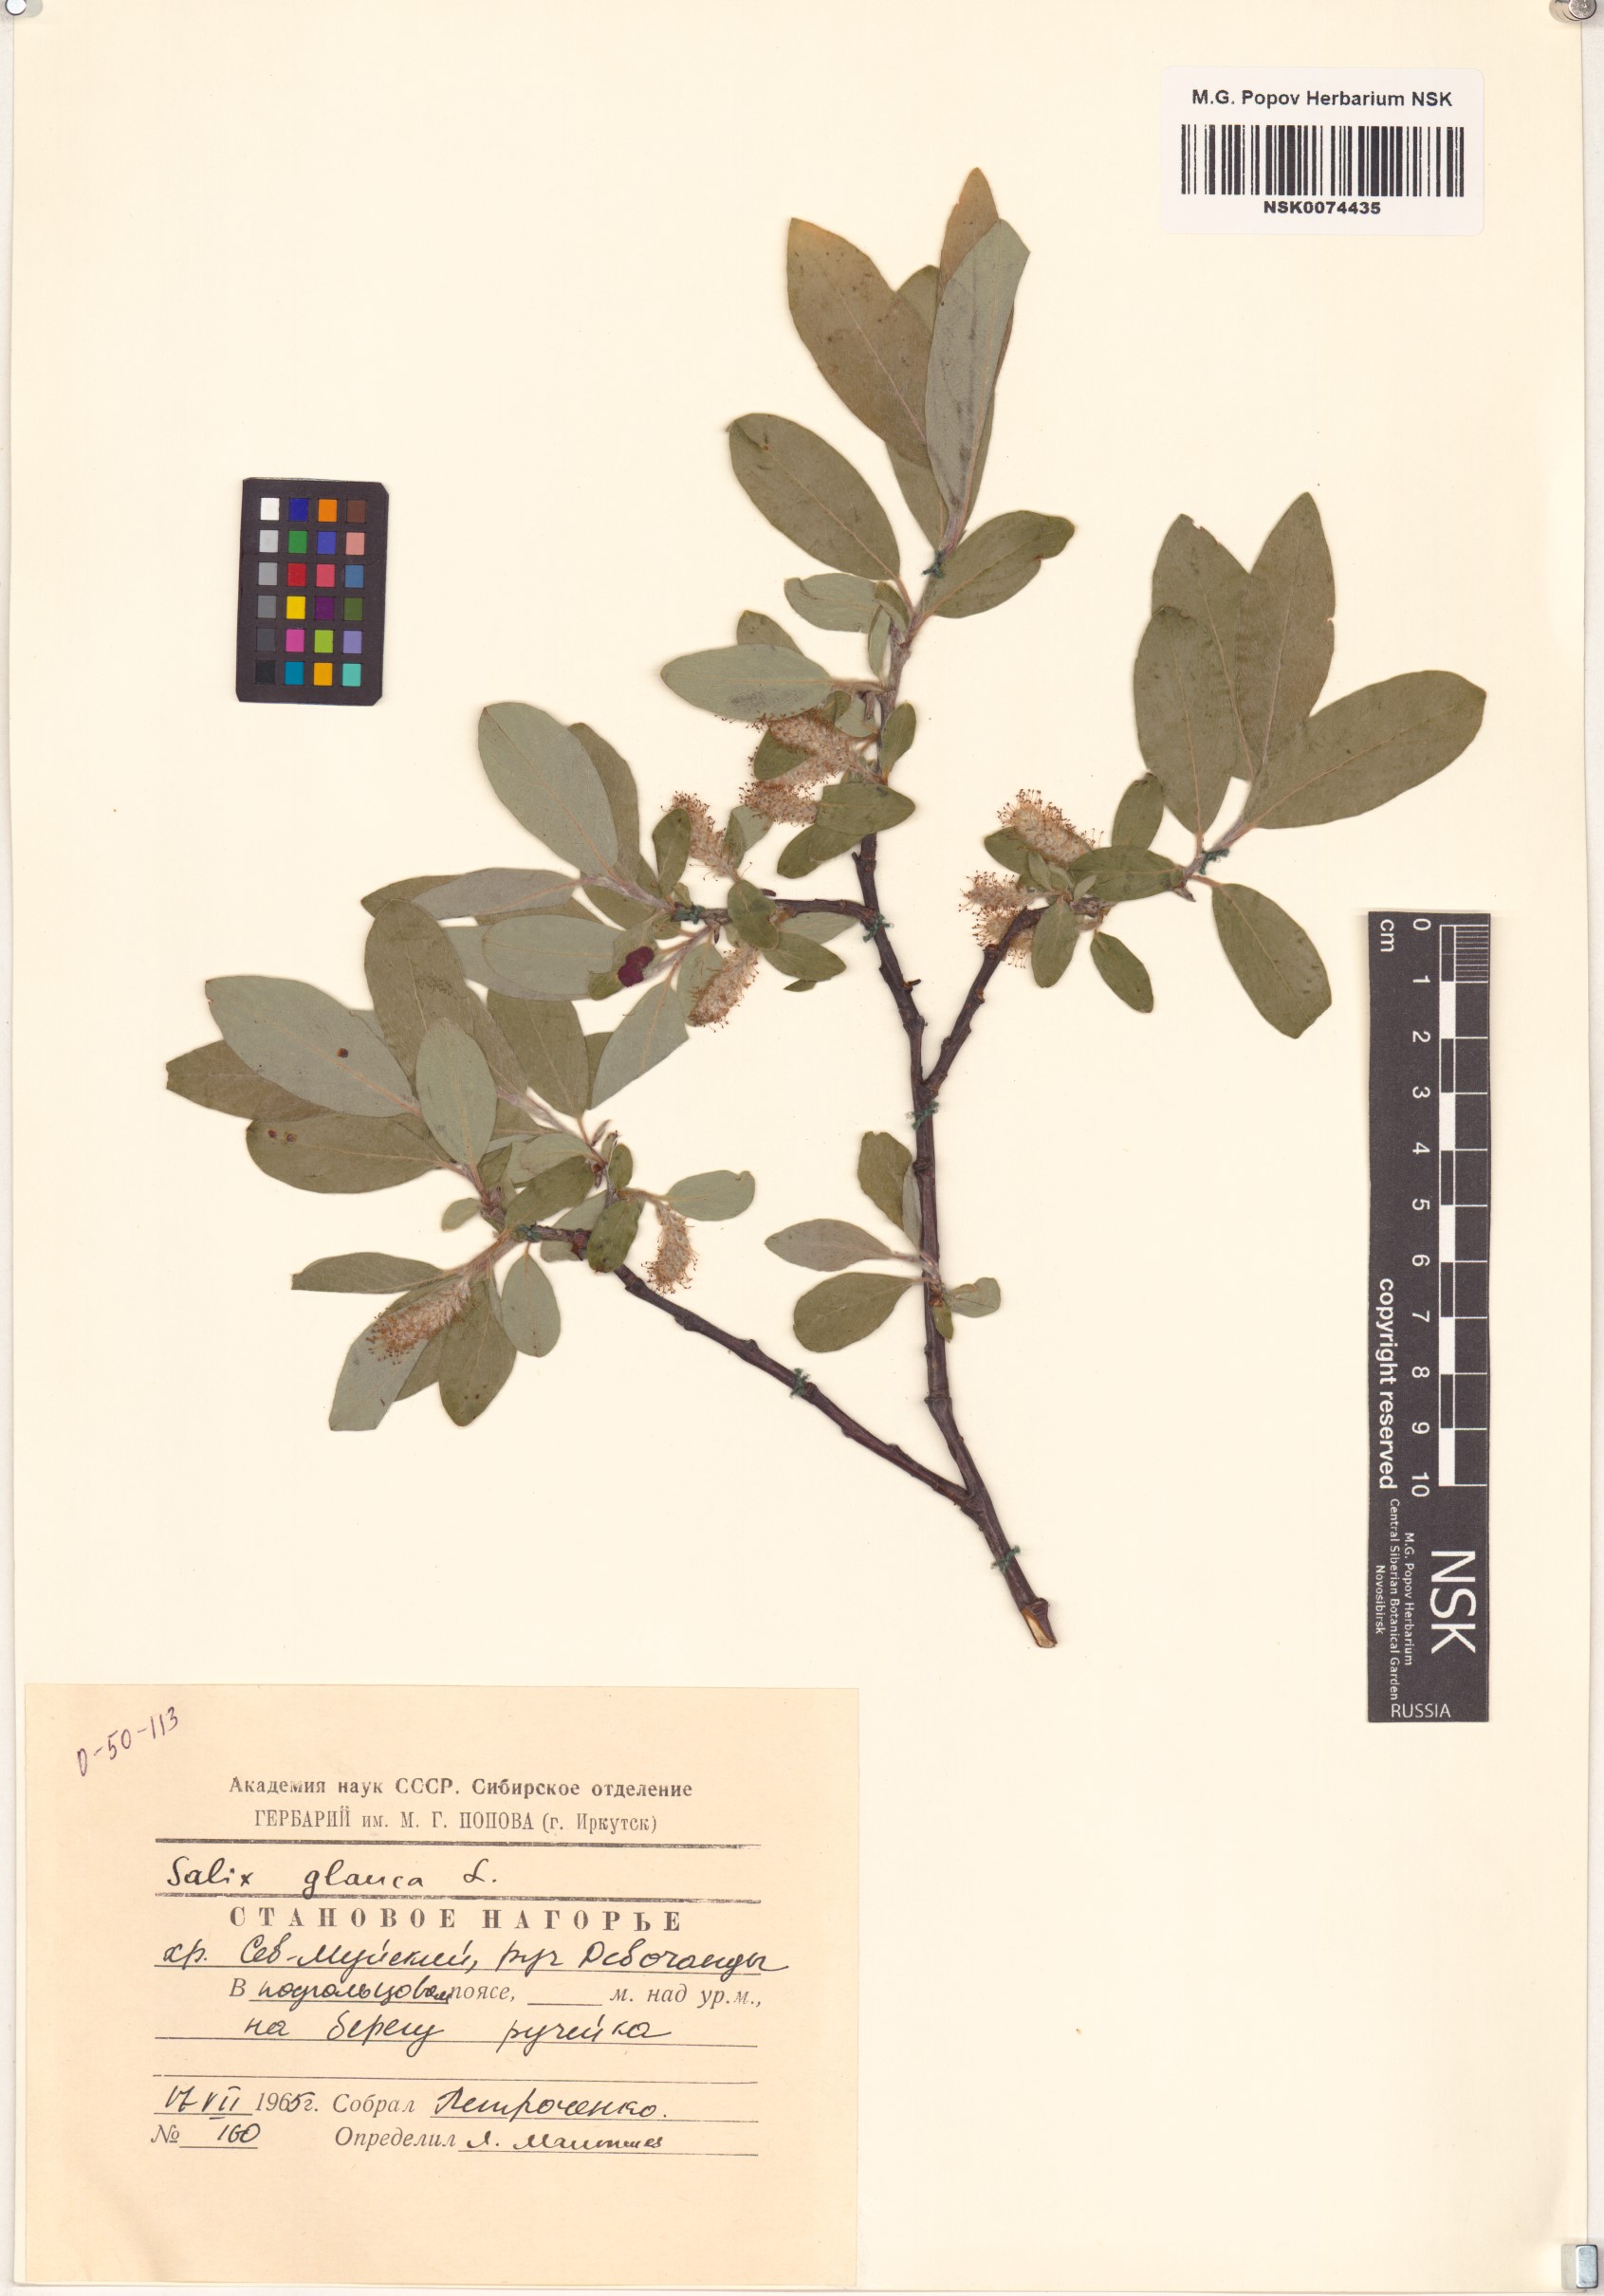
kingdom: Plantae
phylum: Tracheophyta
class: Magnoliopsida
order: Malpighiales
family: Salicaceae
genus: Salix
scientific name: Salix glauca
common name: Glaucous willow
